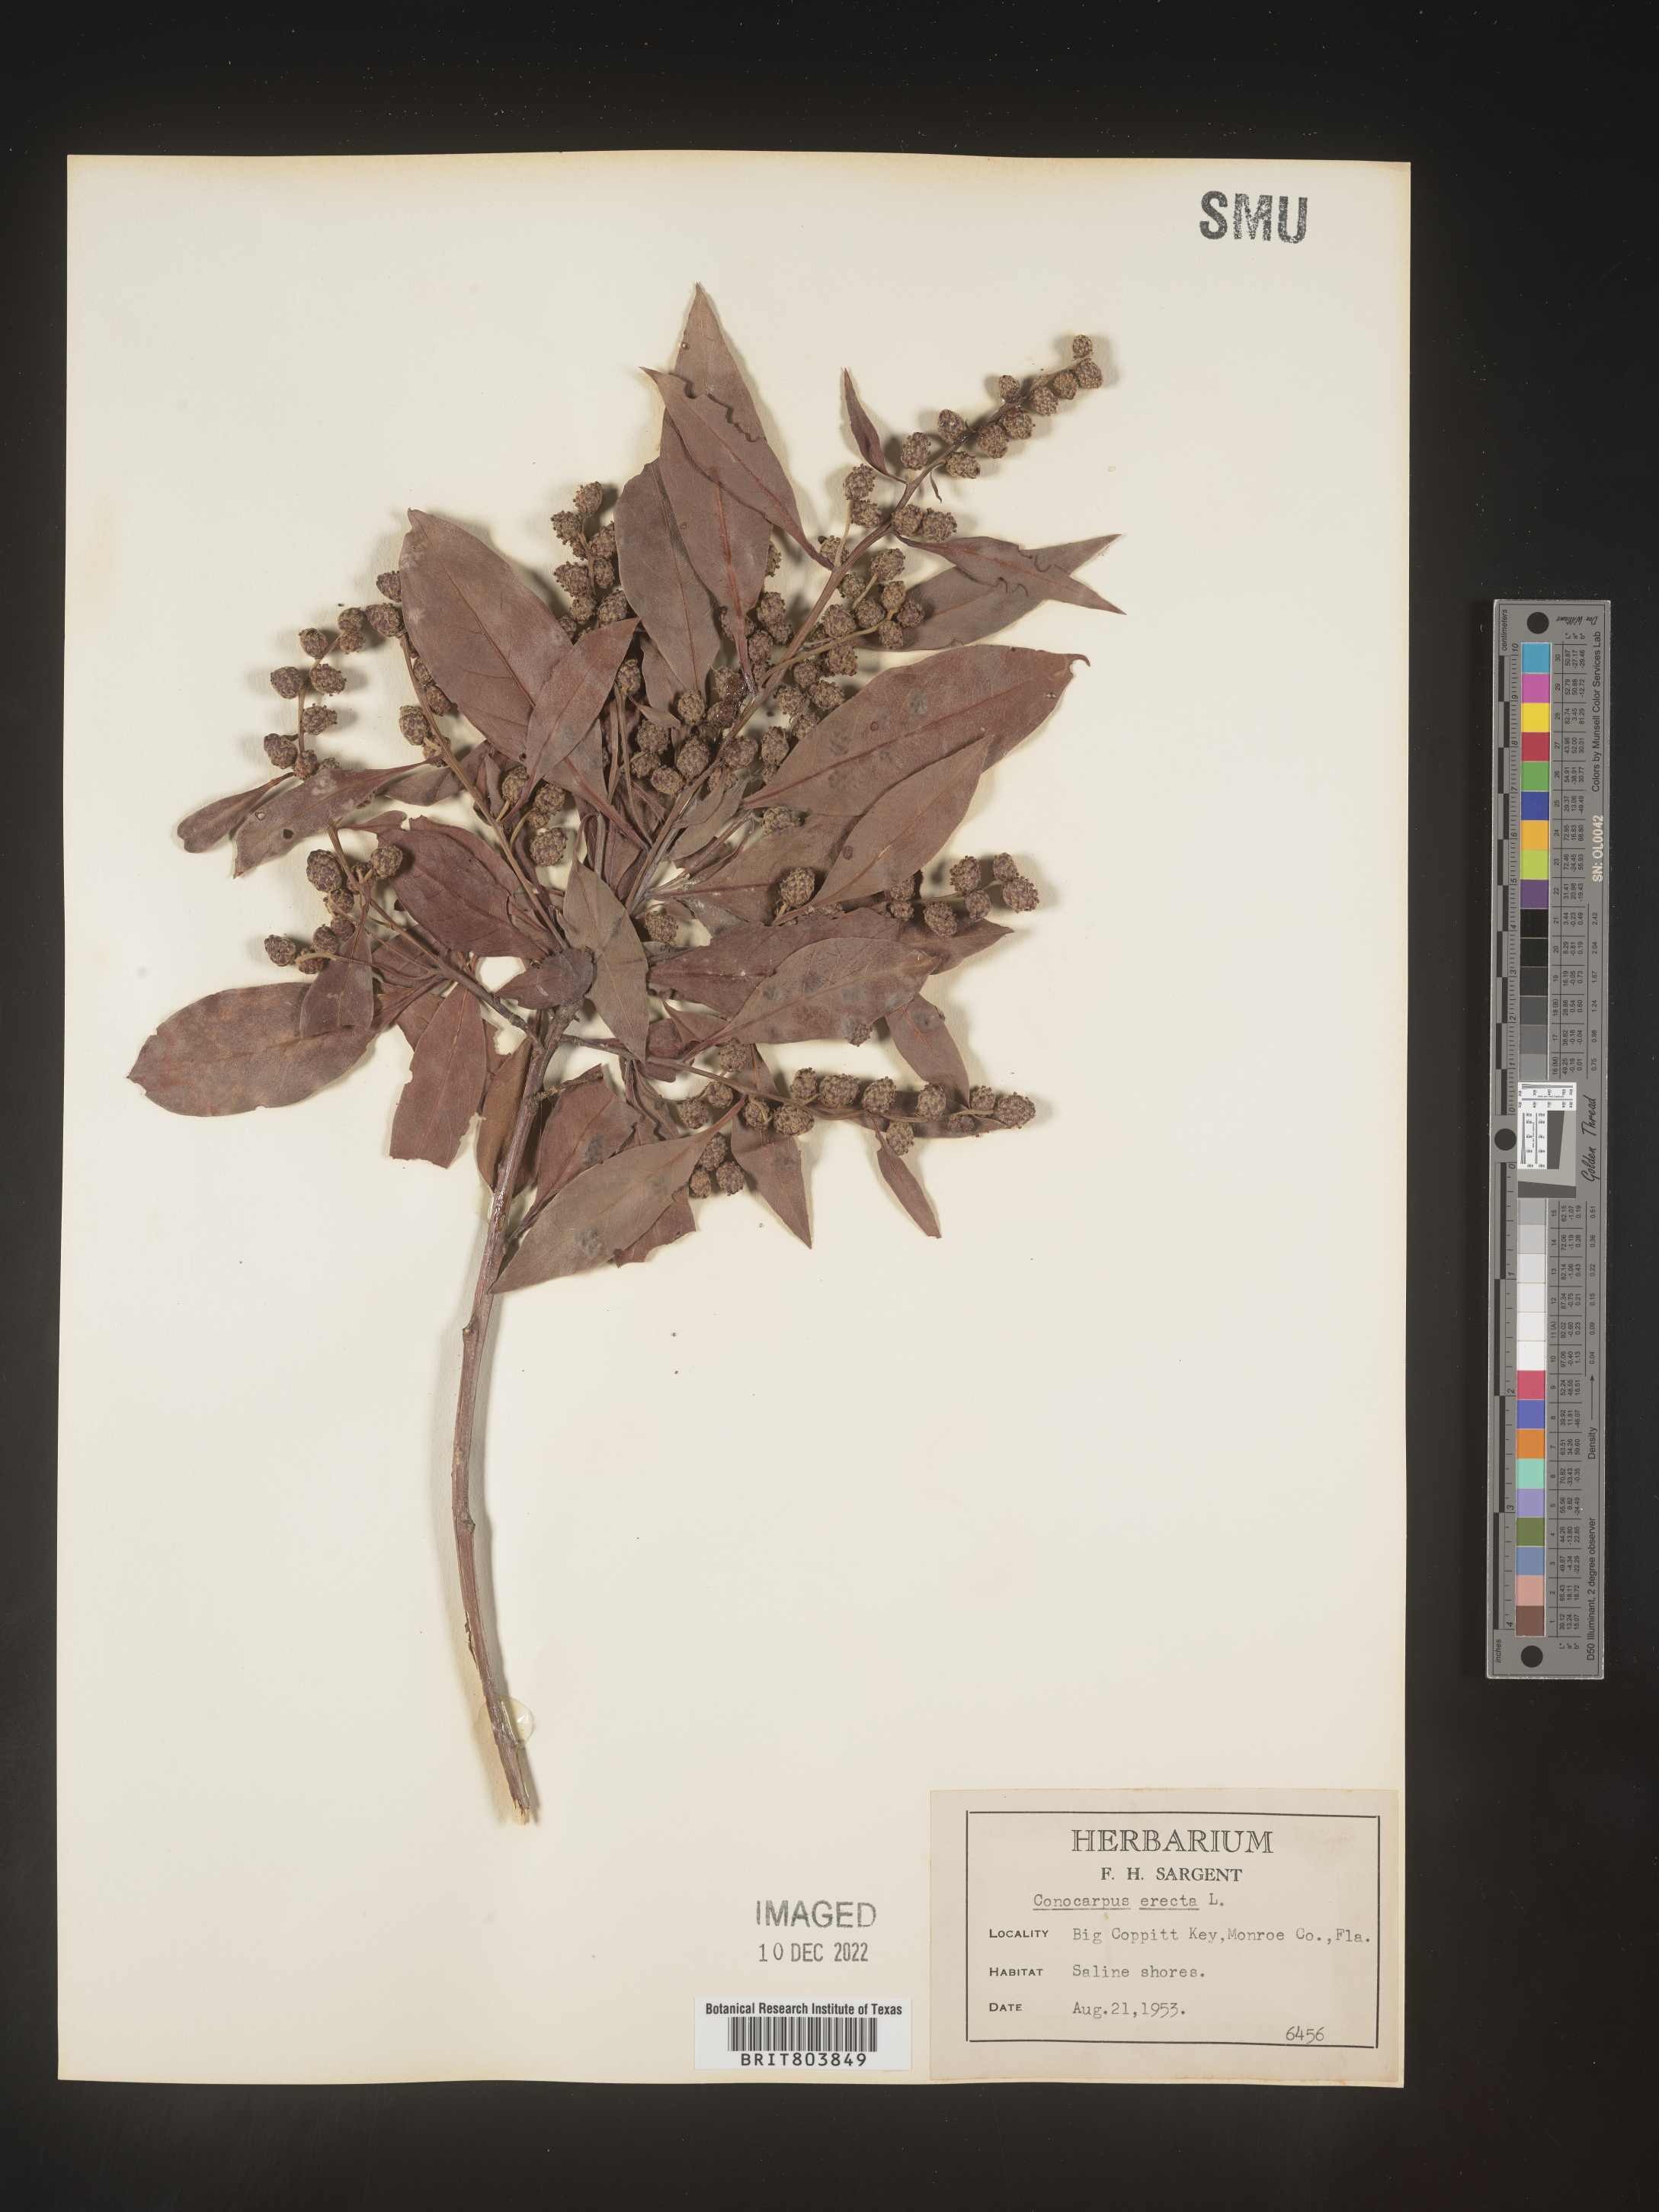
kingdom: Plantae
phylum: Tracheophyta
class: Magnoliopsida
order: Myrtales
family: Combretaceae
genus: Conocarpus
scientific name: Conocarpus erectus
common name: Button mangrove
